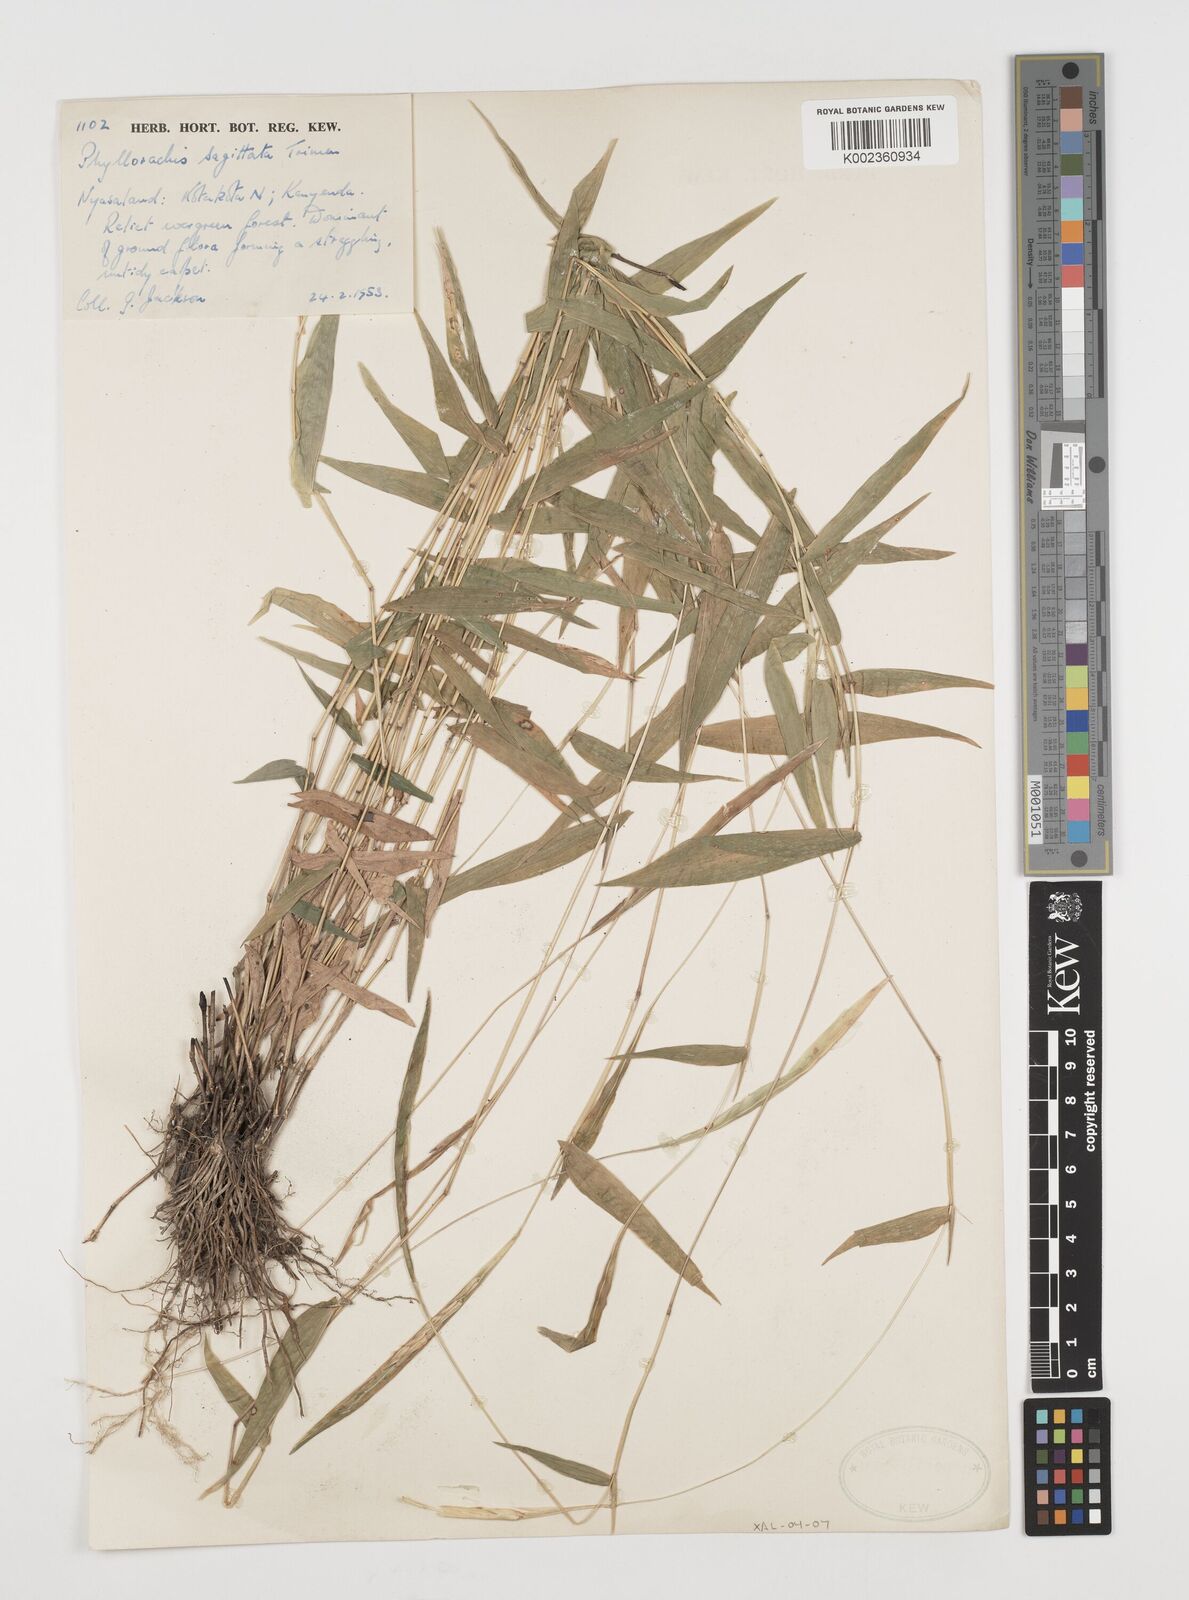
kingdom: Plantae
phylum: Tracheophyta
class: Liliopsida
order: Poales
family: Poaceae
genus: Phyllorachis
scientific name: Phyllorachis sagittata
